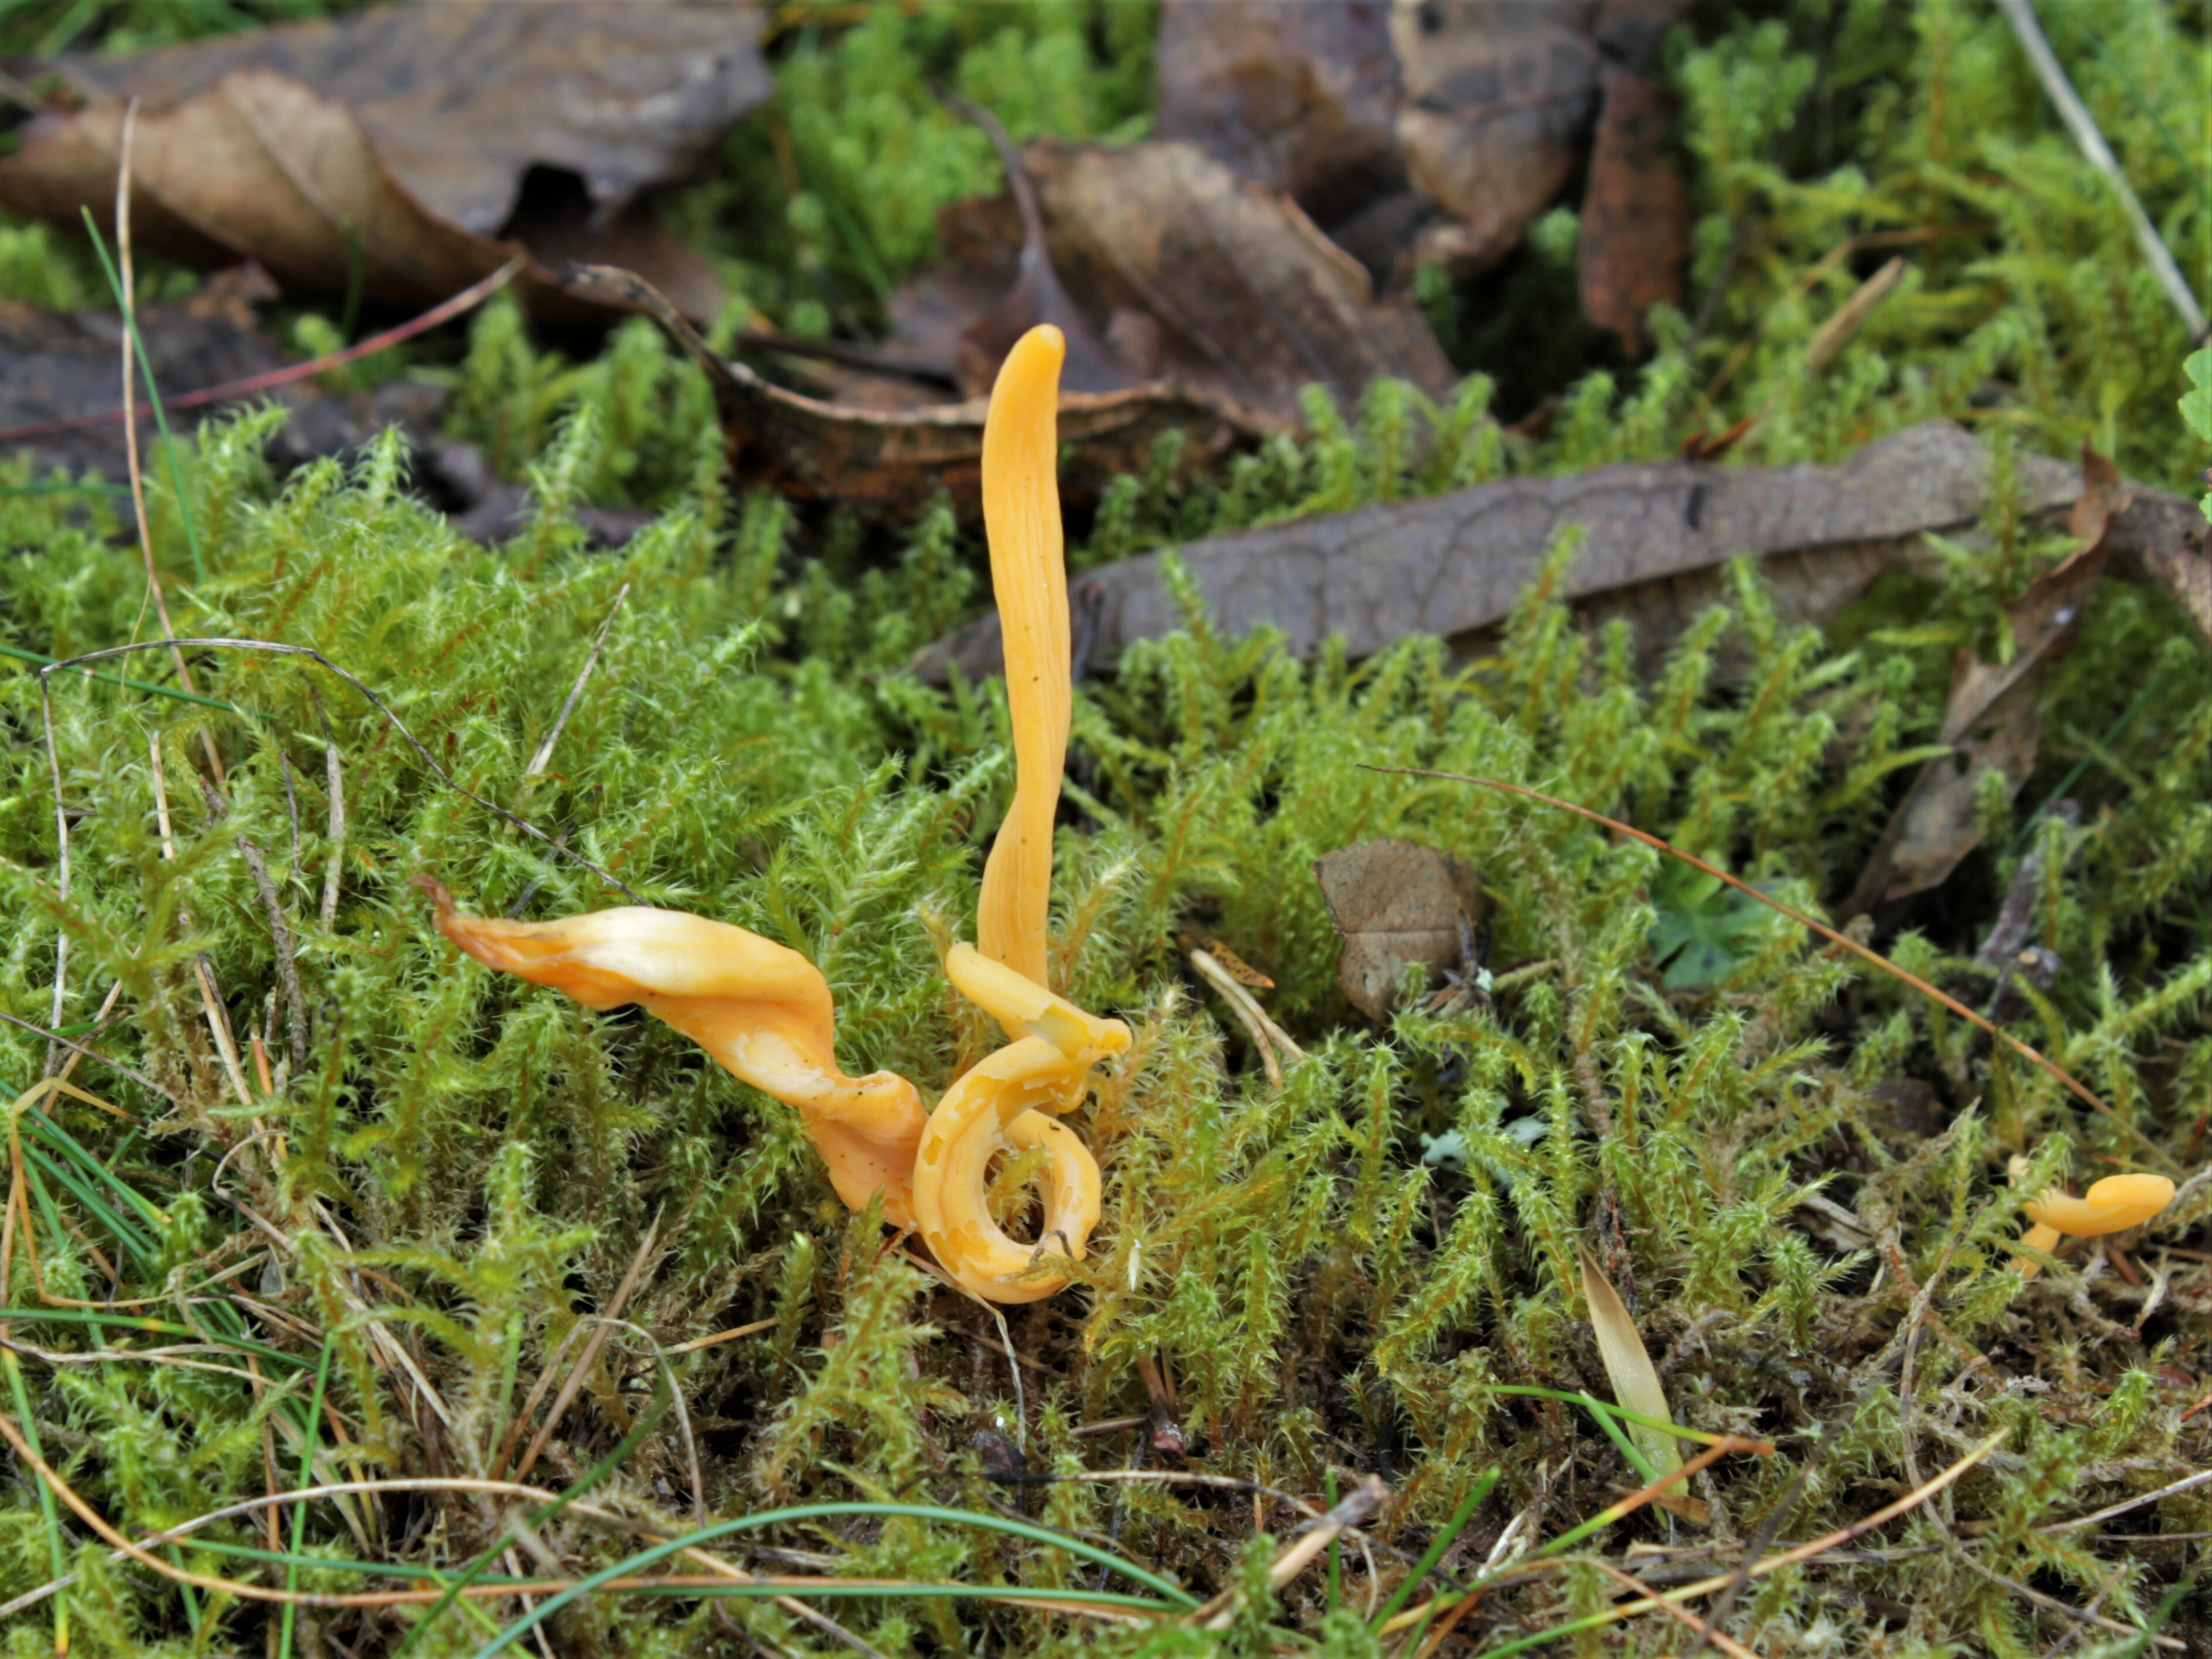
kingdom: Fungi
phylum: Basidiomycota
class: Agaricomycetes
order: Agaricales
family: Clavariaceae
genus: Clavulinopsis
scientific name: Clavulinopsis luteoalba
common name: Apricot club
